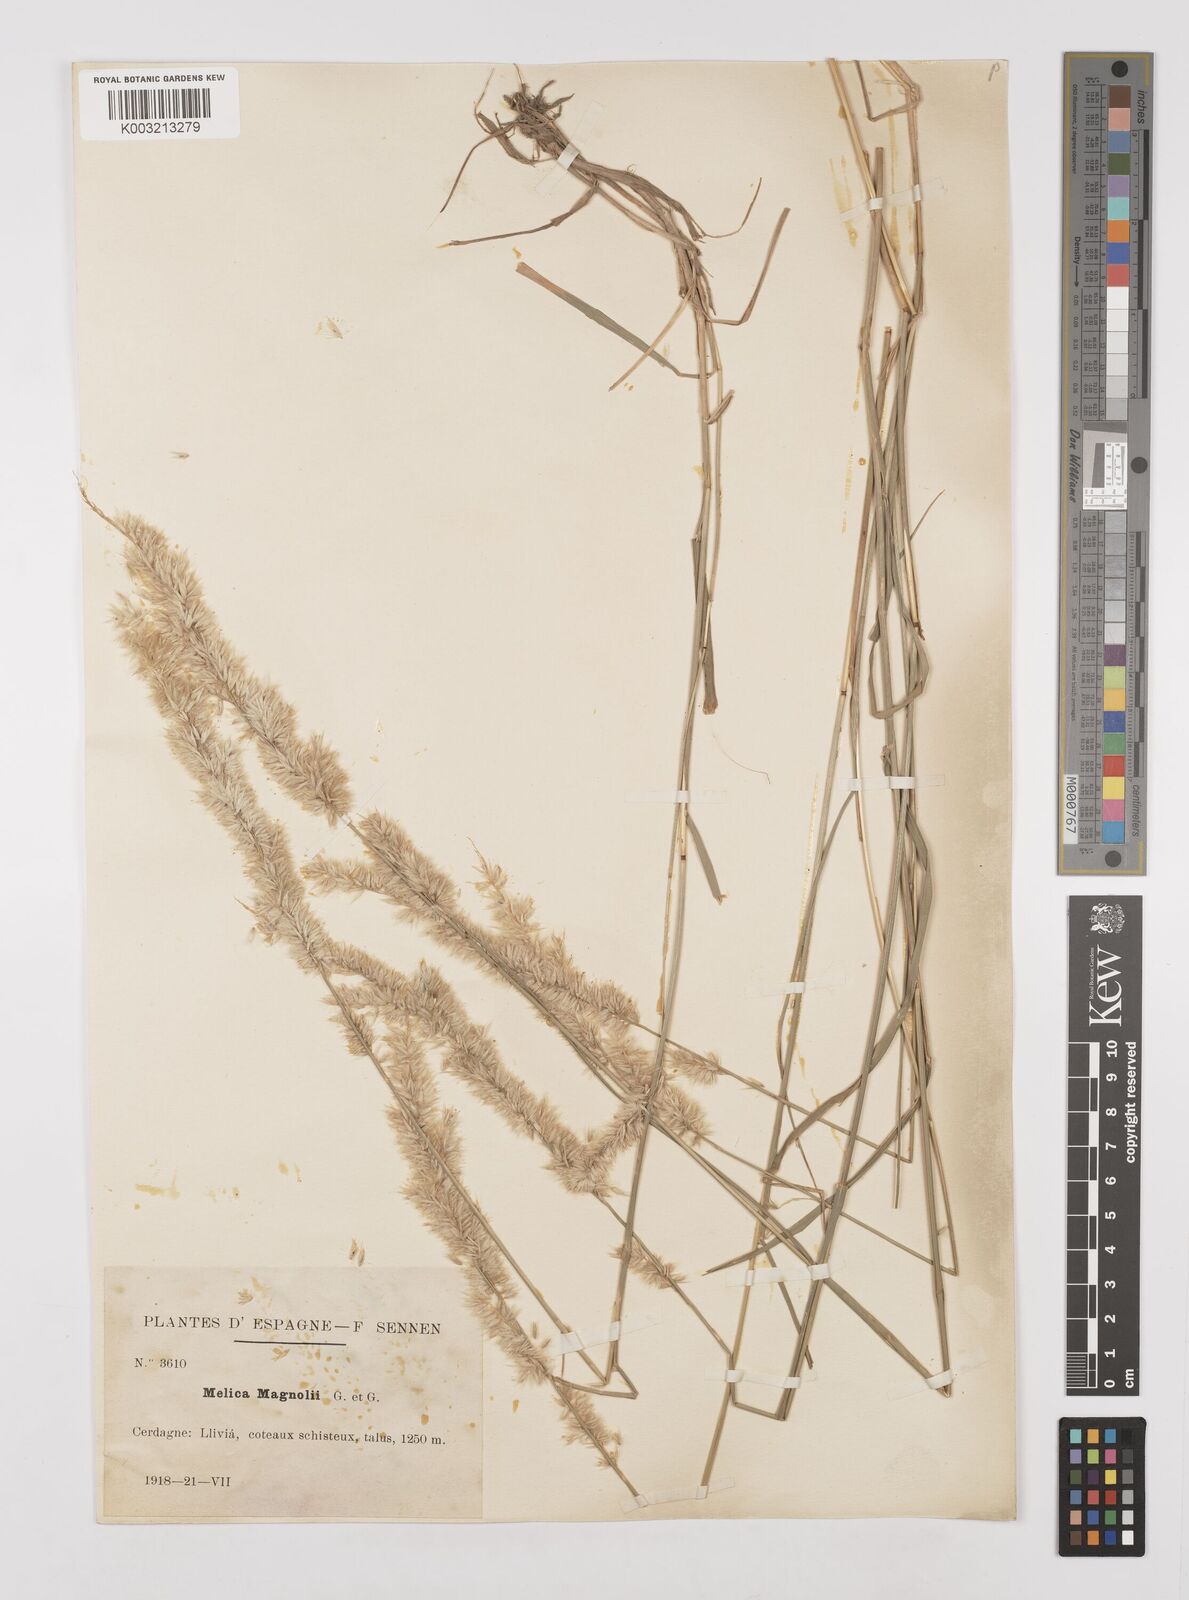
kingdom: Plantae
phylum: Tracheophyta
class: Liliopsida
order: Poales
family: Poaceae
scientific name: Poaceae
